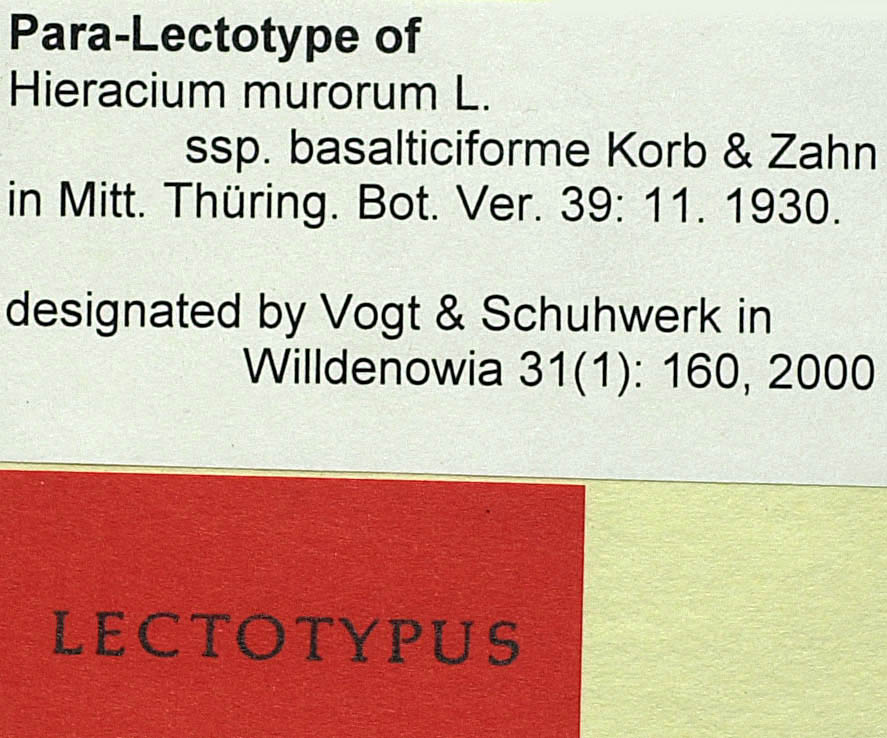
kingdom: Plantae
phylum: Tracheophyta
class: Magnoliopsida
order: Asterales
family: Asteraceae
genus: Hieracium
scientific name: Hieracium murorum
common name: Wall hawkweed
